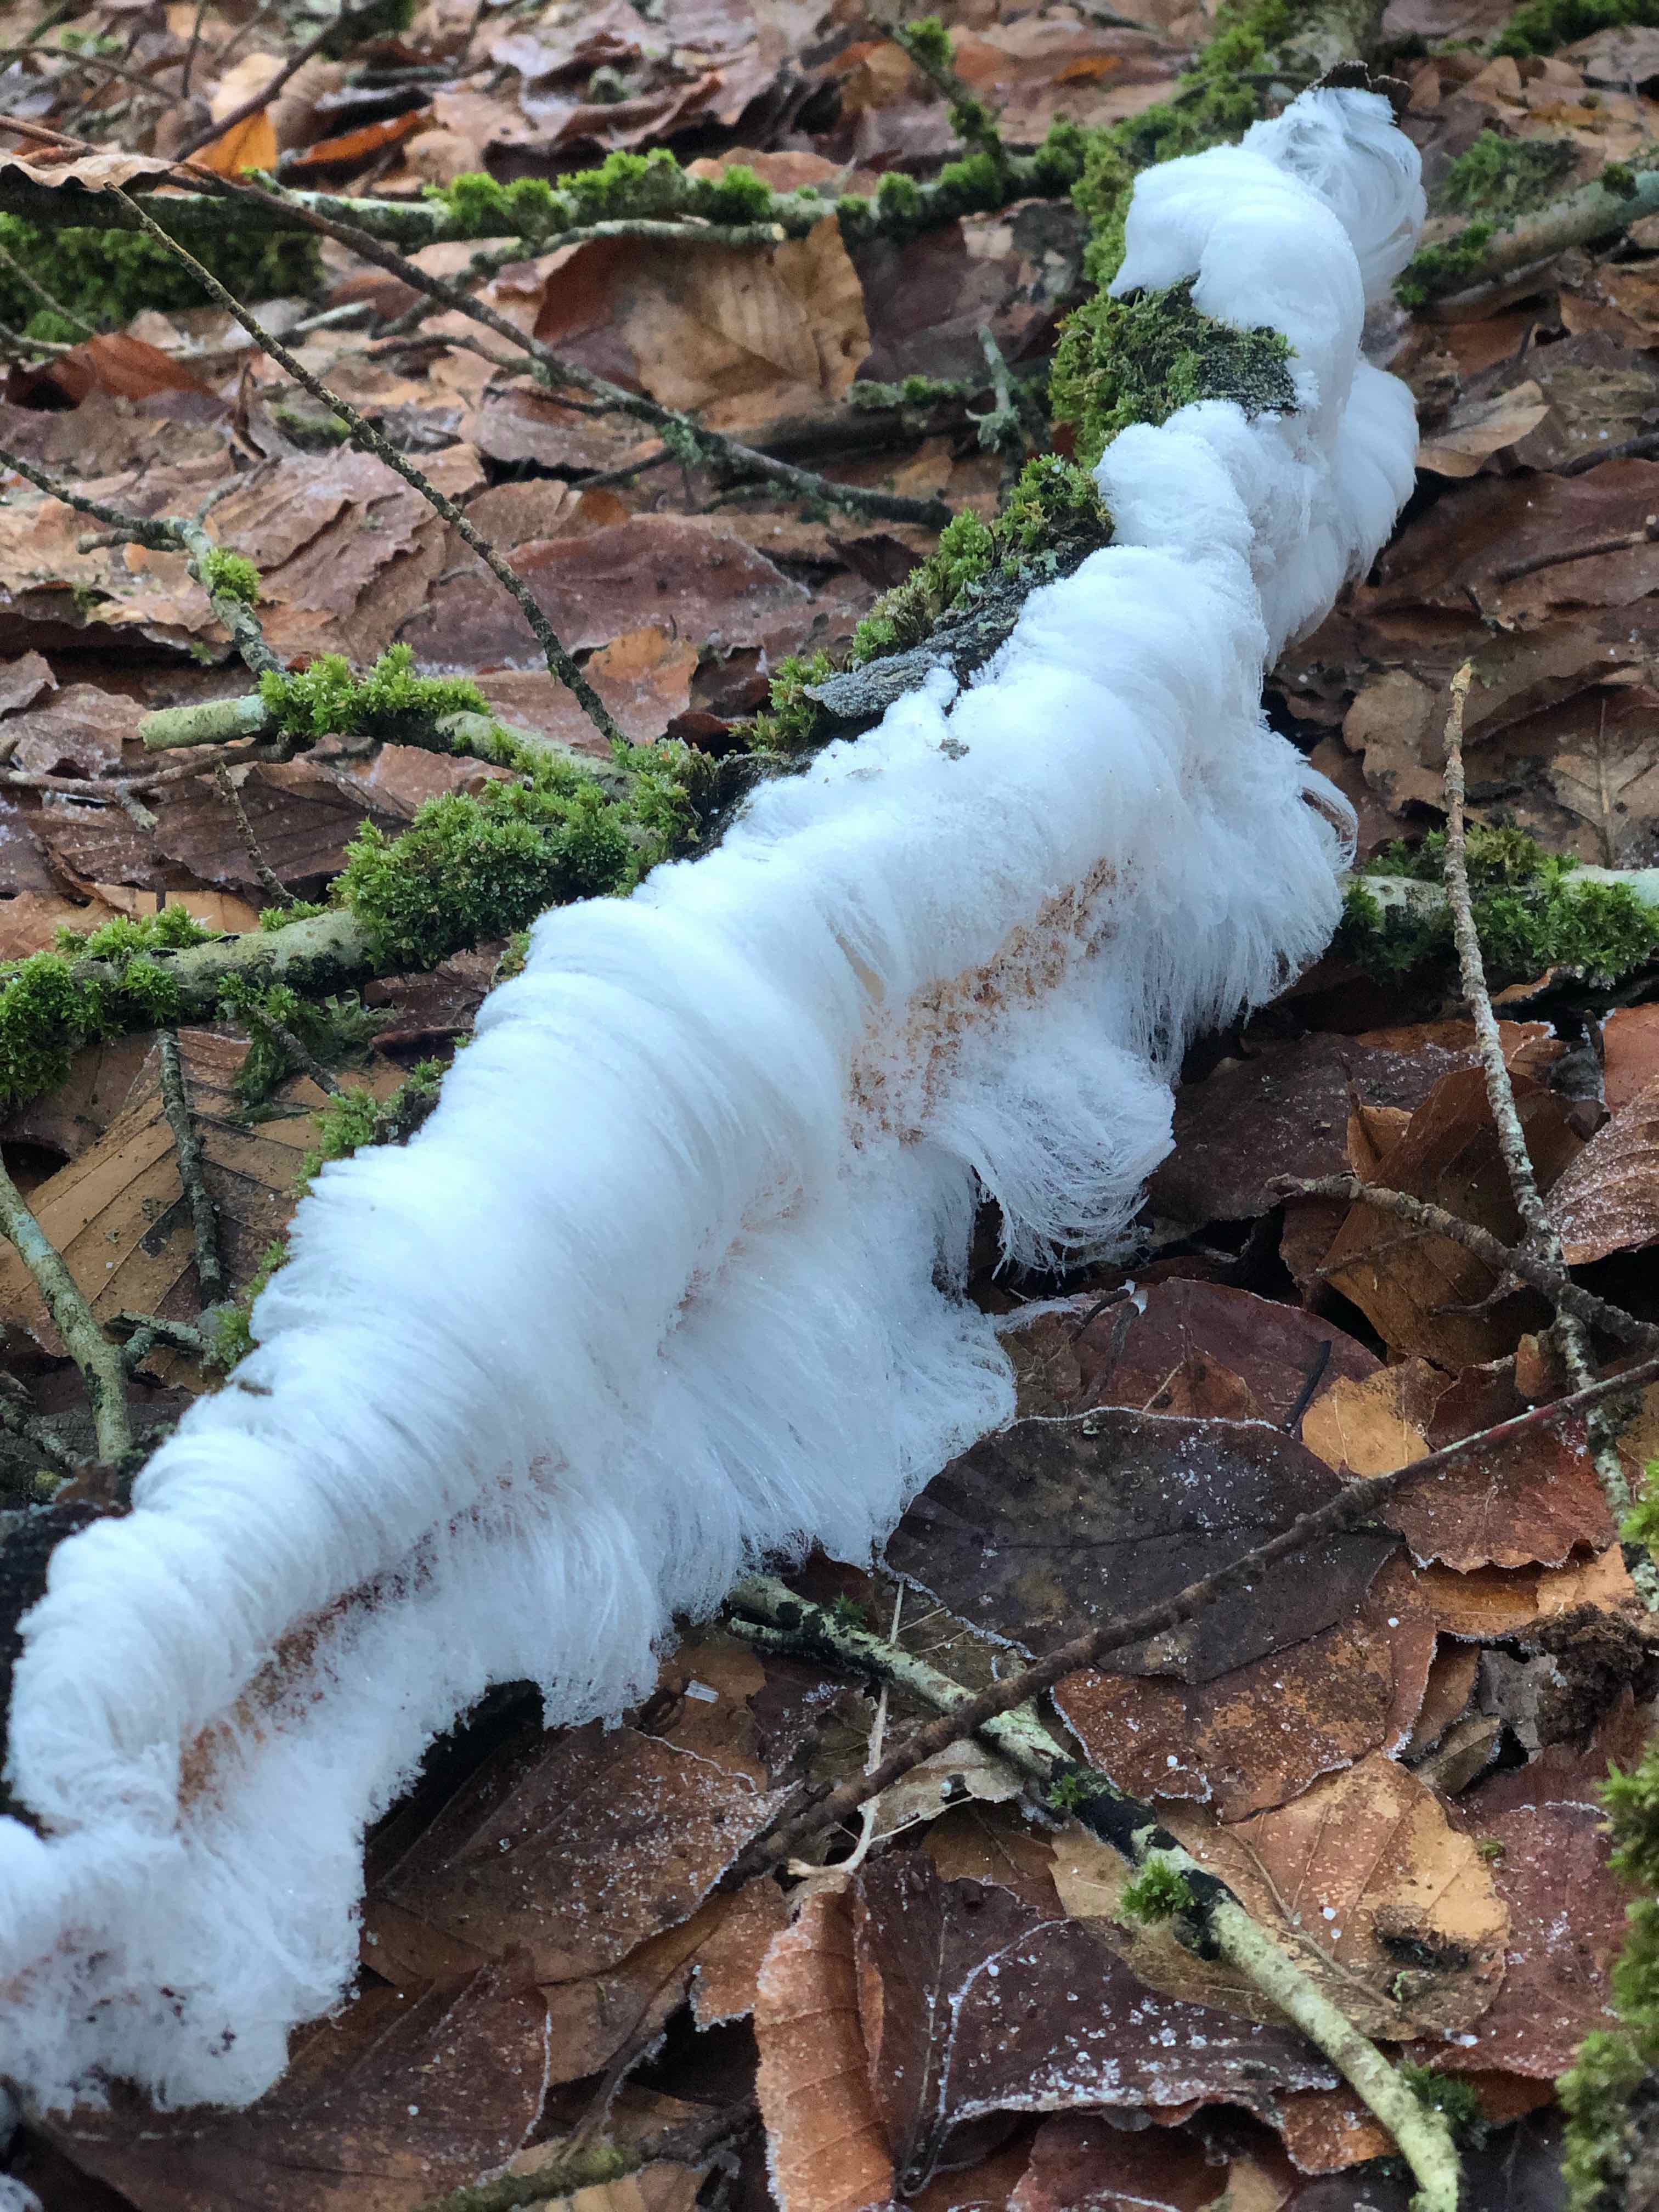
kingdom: Fungi
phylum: Basidiomycota
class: Tremellomycetes
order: Tremellales
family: Exidiaceae
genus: Exidiopsis
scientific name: Exidiopsis effusa
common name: smuk bævrehinde
